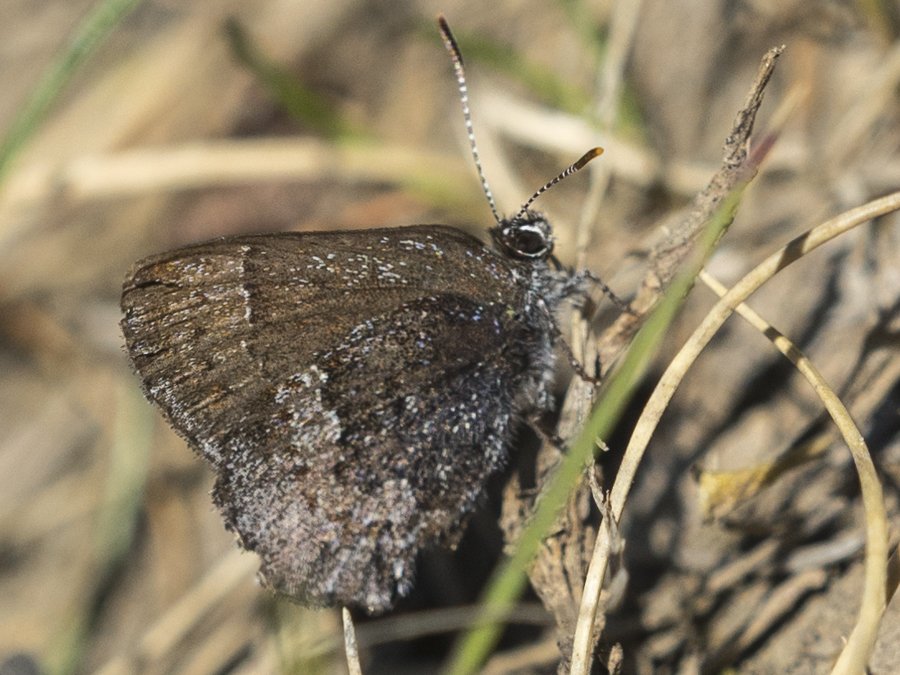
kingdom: Animalia
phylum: Arthropoda
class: Insecta
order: Lepidoptera
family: Lycaenidae
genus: Callophrys
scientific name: Callophrys polios
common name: Hoary Elfin
